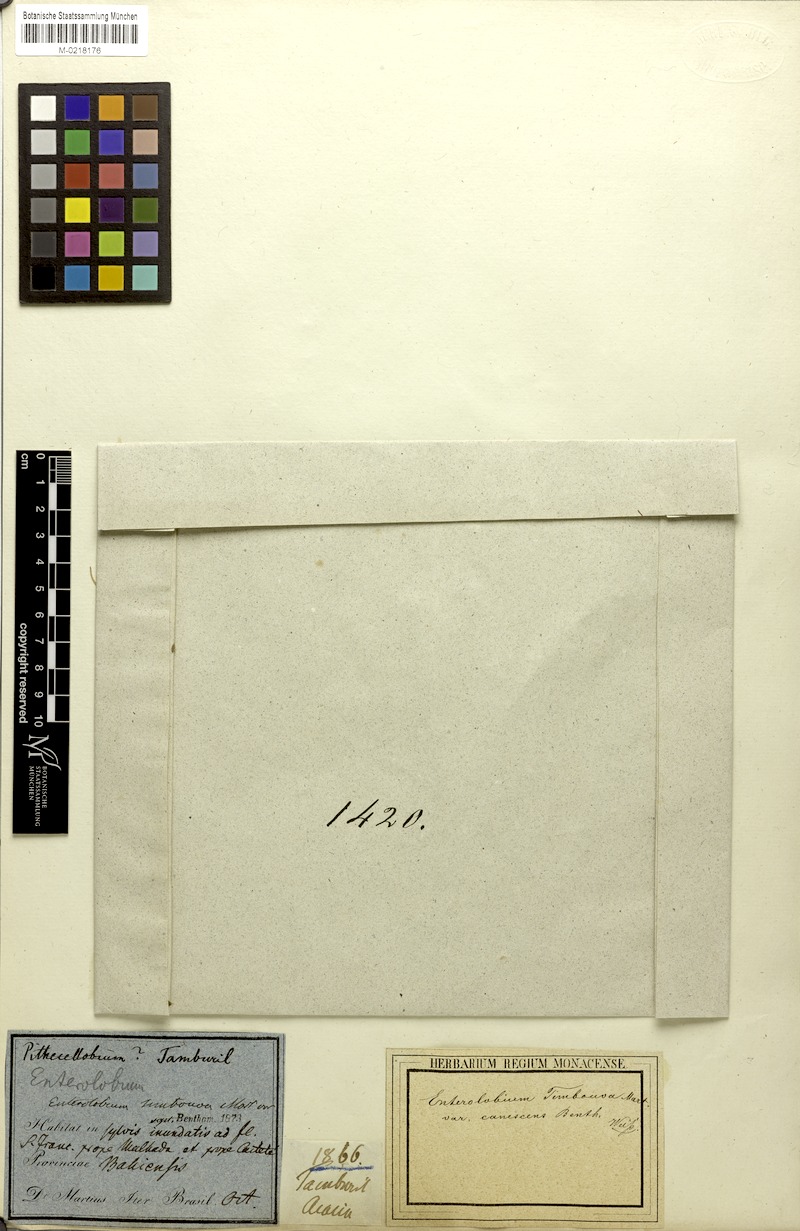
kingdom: Plantae
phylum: Tracheophyta
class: Magnoliopsida
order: Fabales
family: Fabaceae
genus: Enterolobium
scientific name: Enterolobium contortisiliquum
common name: Pacara earpod tree
